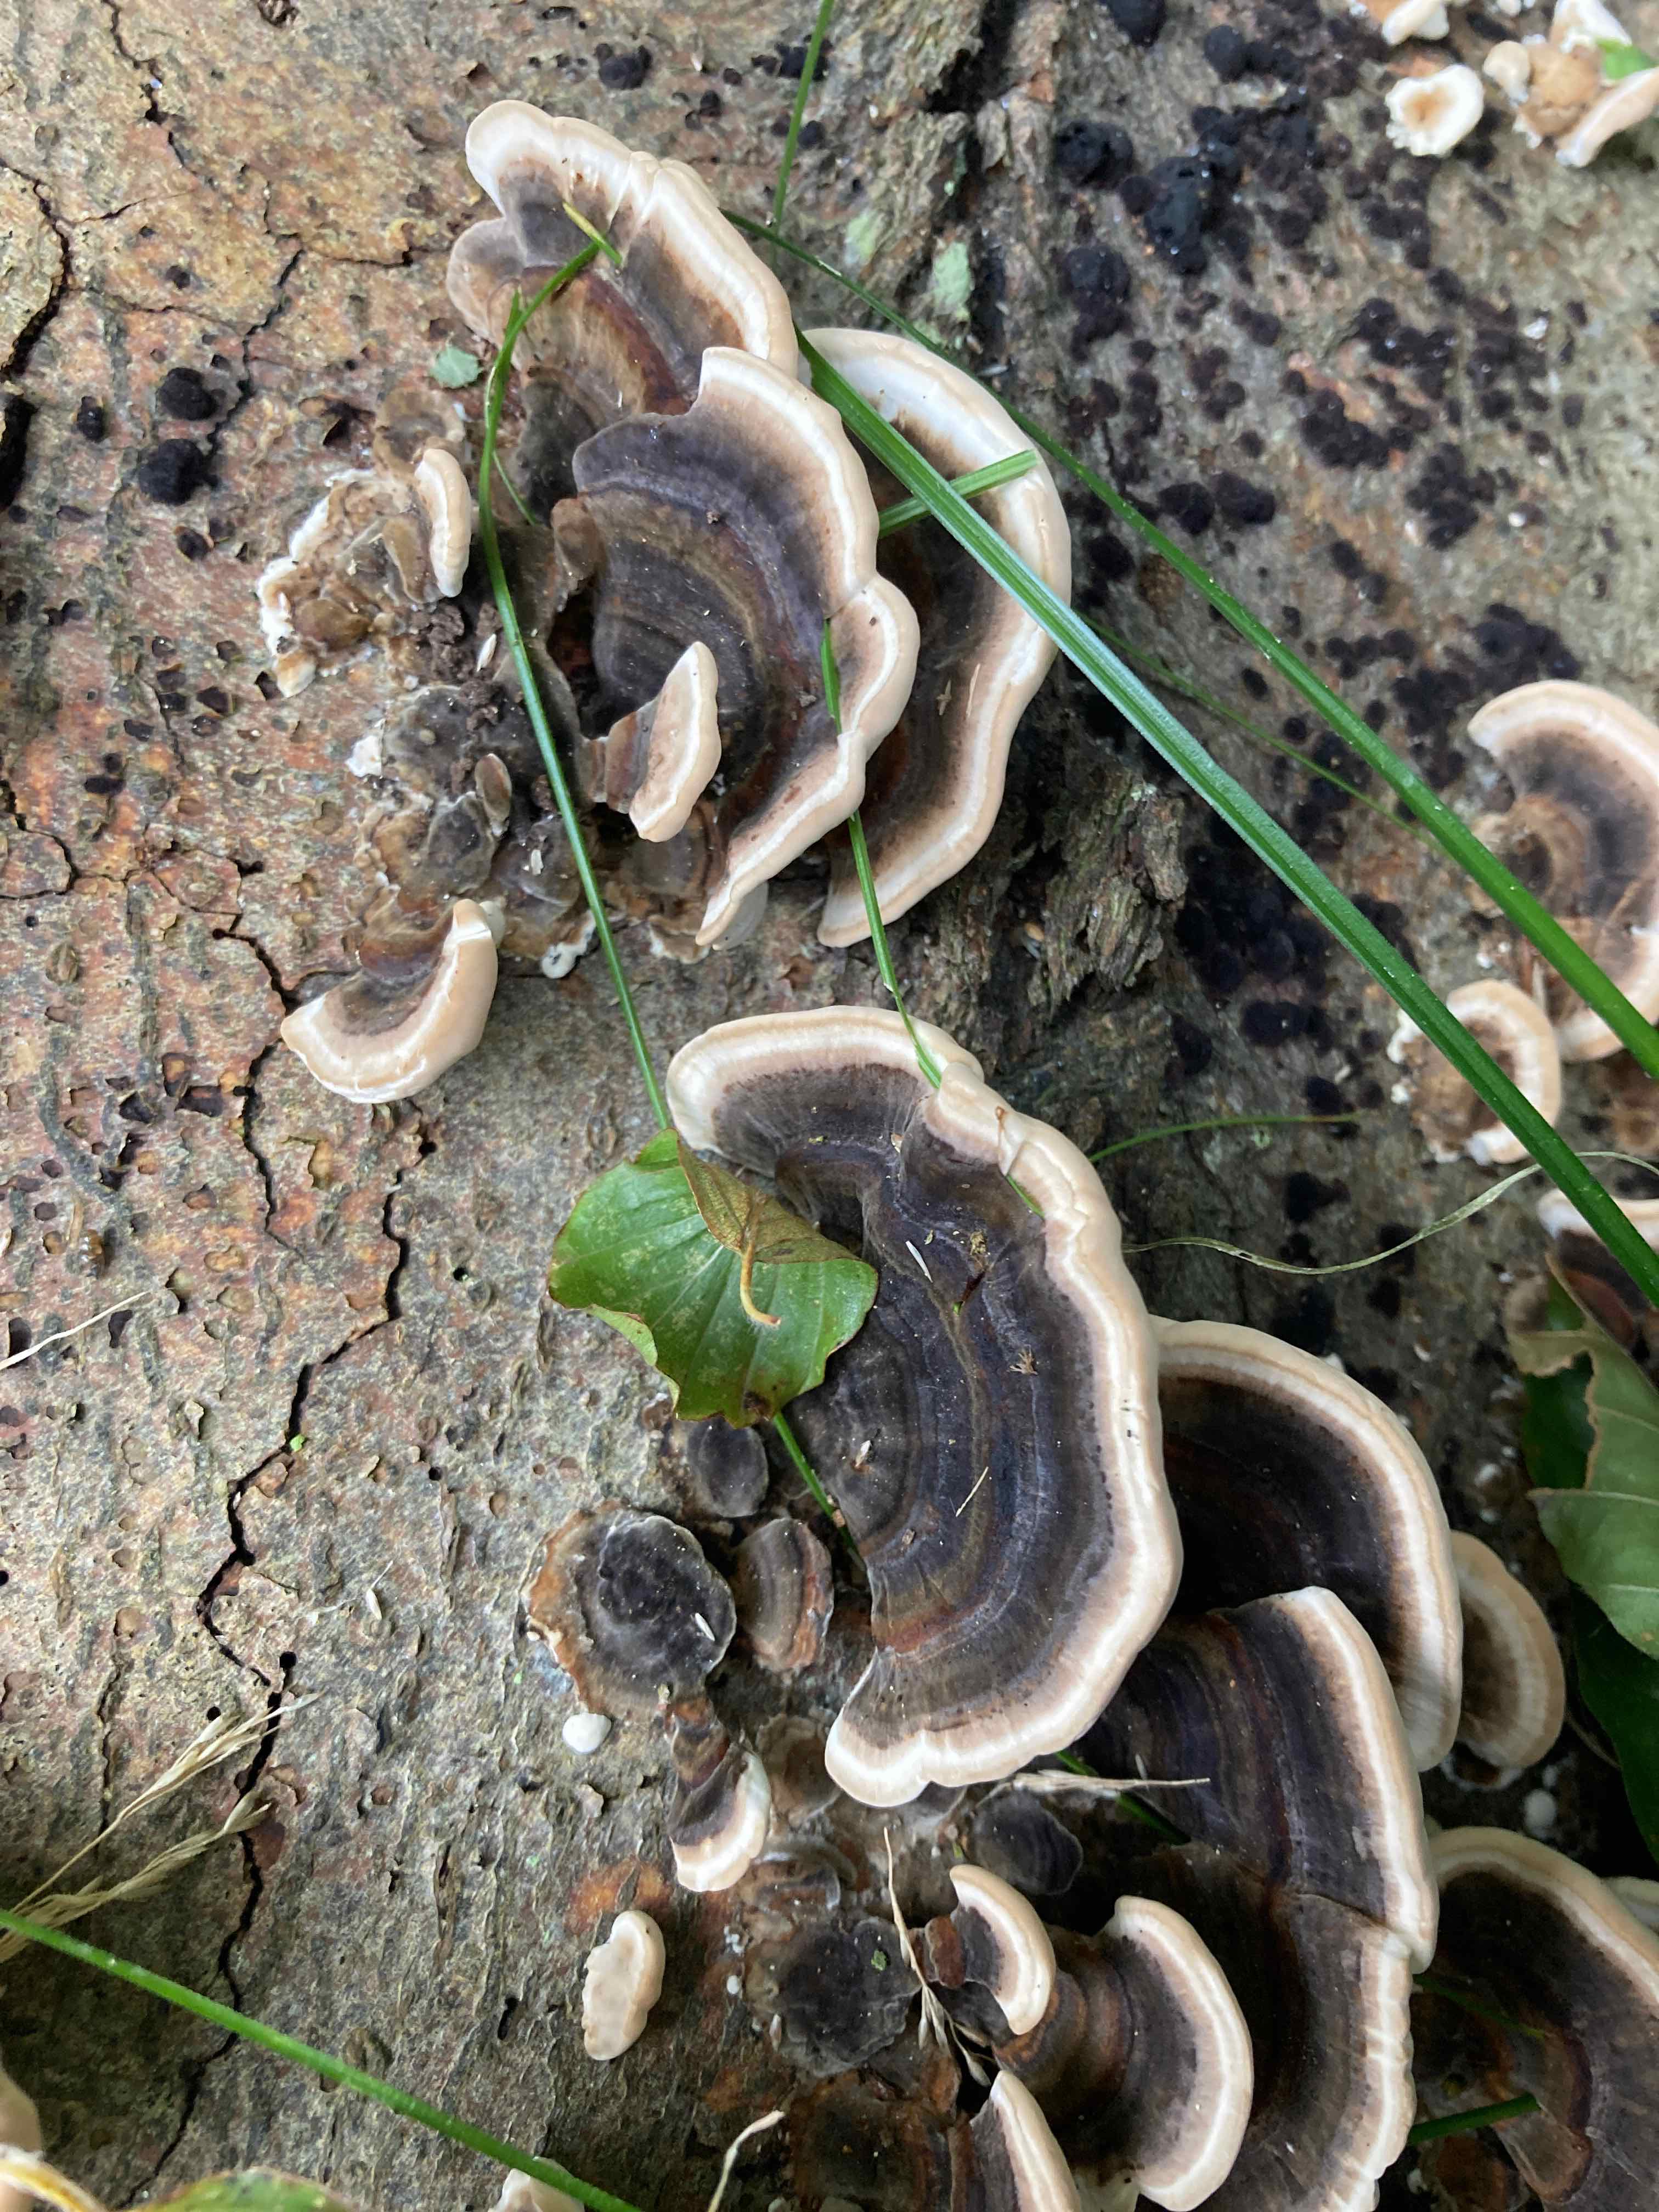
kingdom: Fungi
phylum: Basidiomycota
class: Agaricomycetes
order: Polyporales
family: Polyporaceae
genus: Trametes
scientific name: Trametes versicolor
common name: broget læderporesvamp
